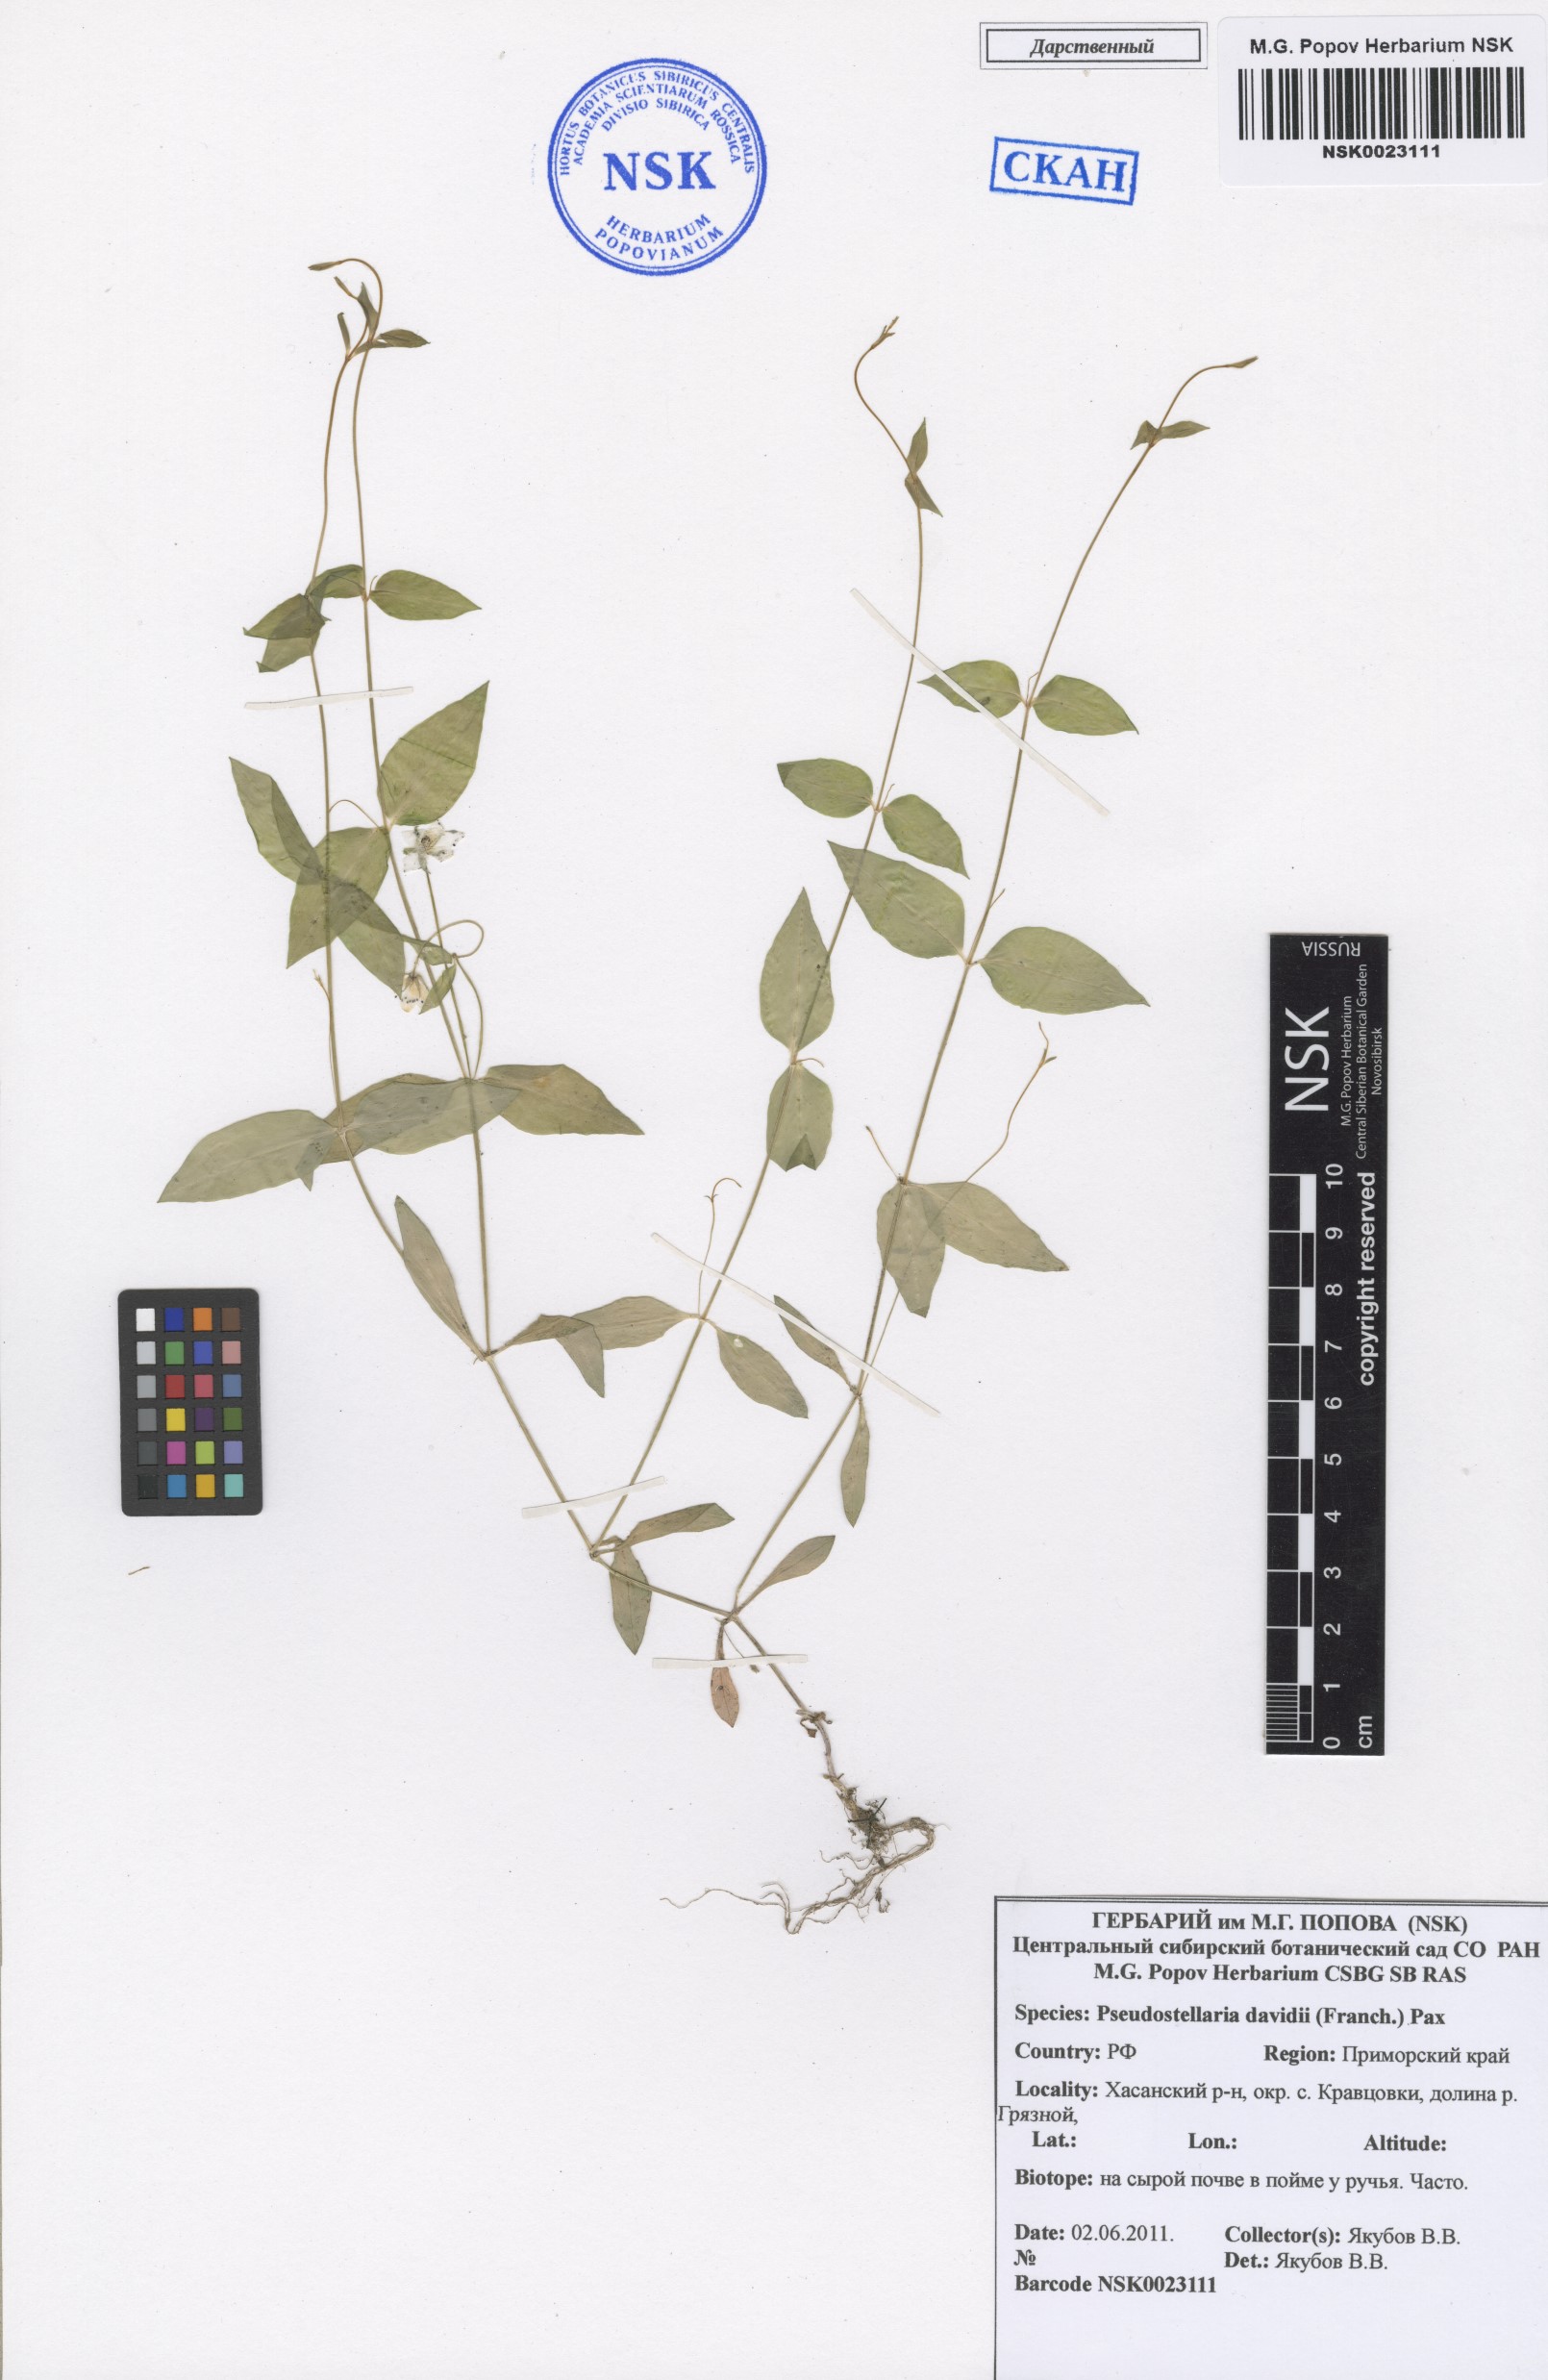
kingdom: Plantae
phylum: Tracheophyta
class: Magnoliopsida
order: Caryophyllales
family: Caryophyllaceae
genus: Pseudostellaria
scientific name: Pseudostellaria davidii
